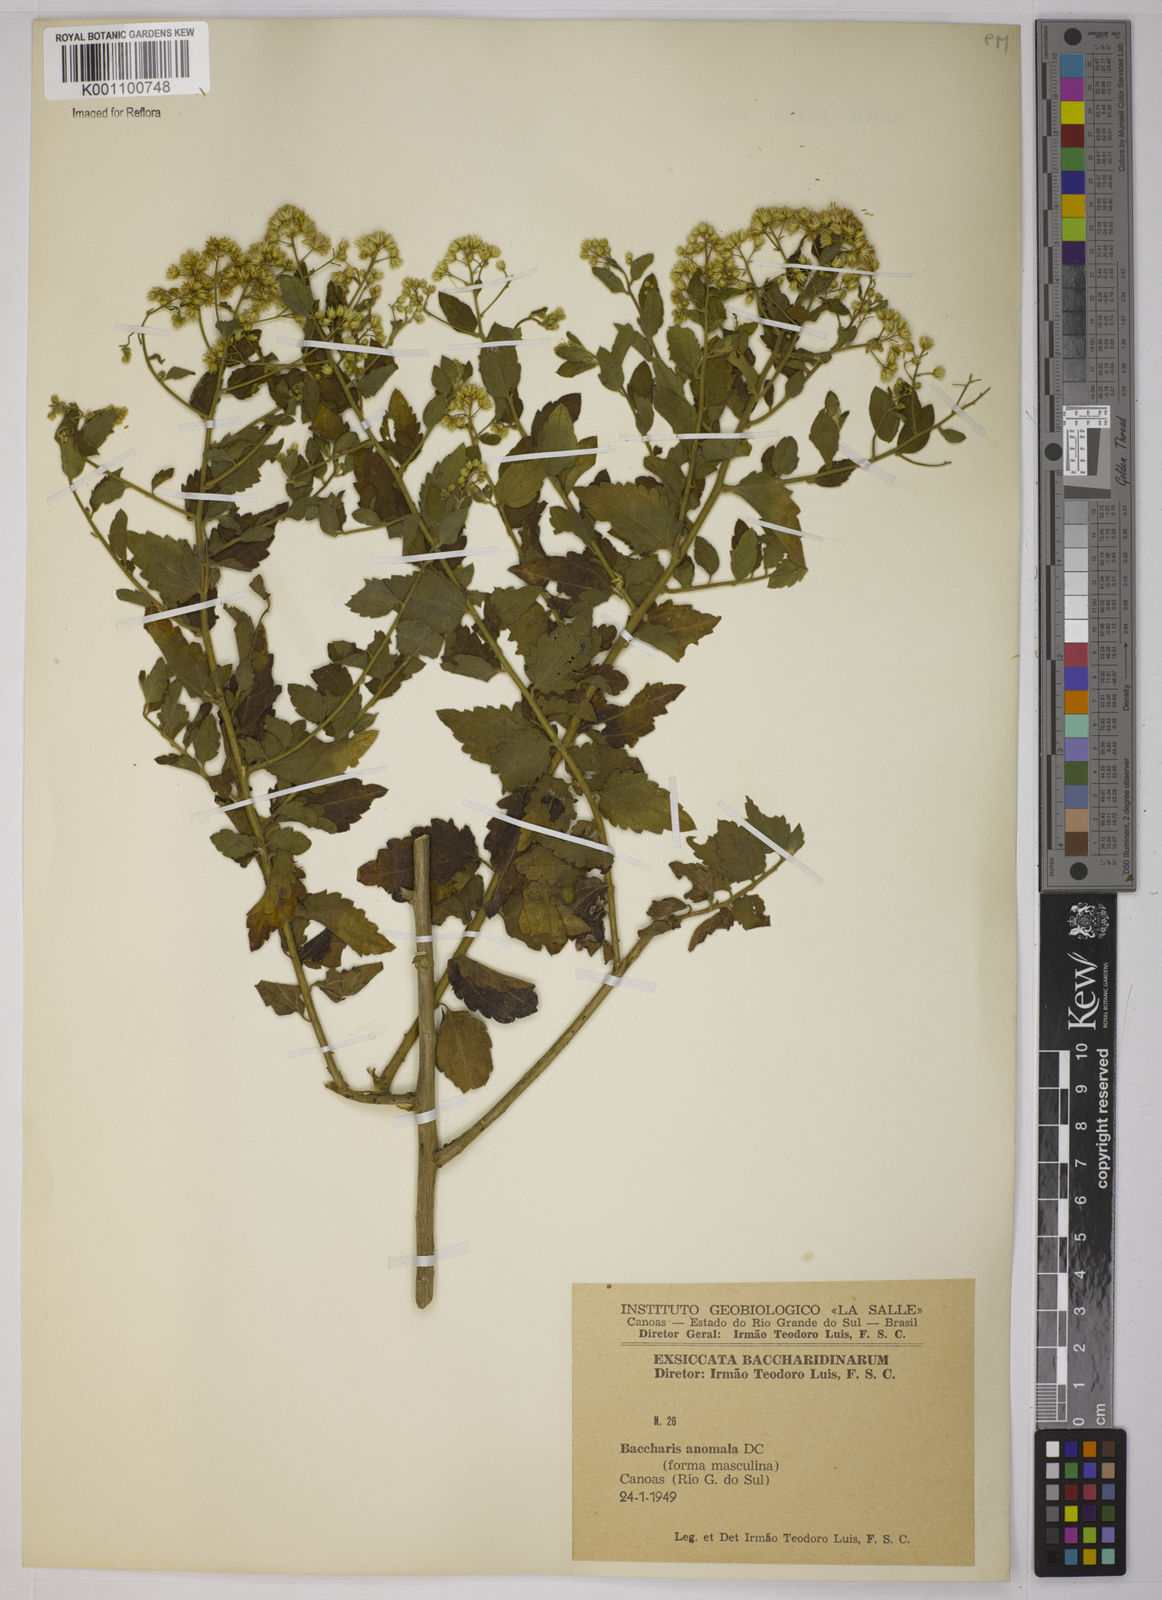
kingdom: Plantae
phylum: Tracheophyta
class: Magnoliopsida
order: Asterales
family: Asteraceae
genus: Baccharis
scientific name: Baccharis anomala
